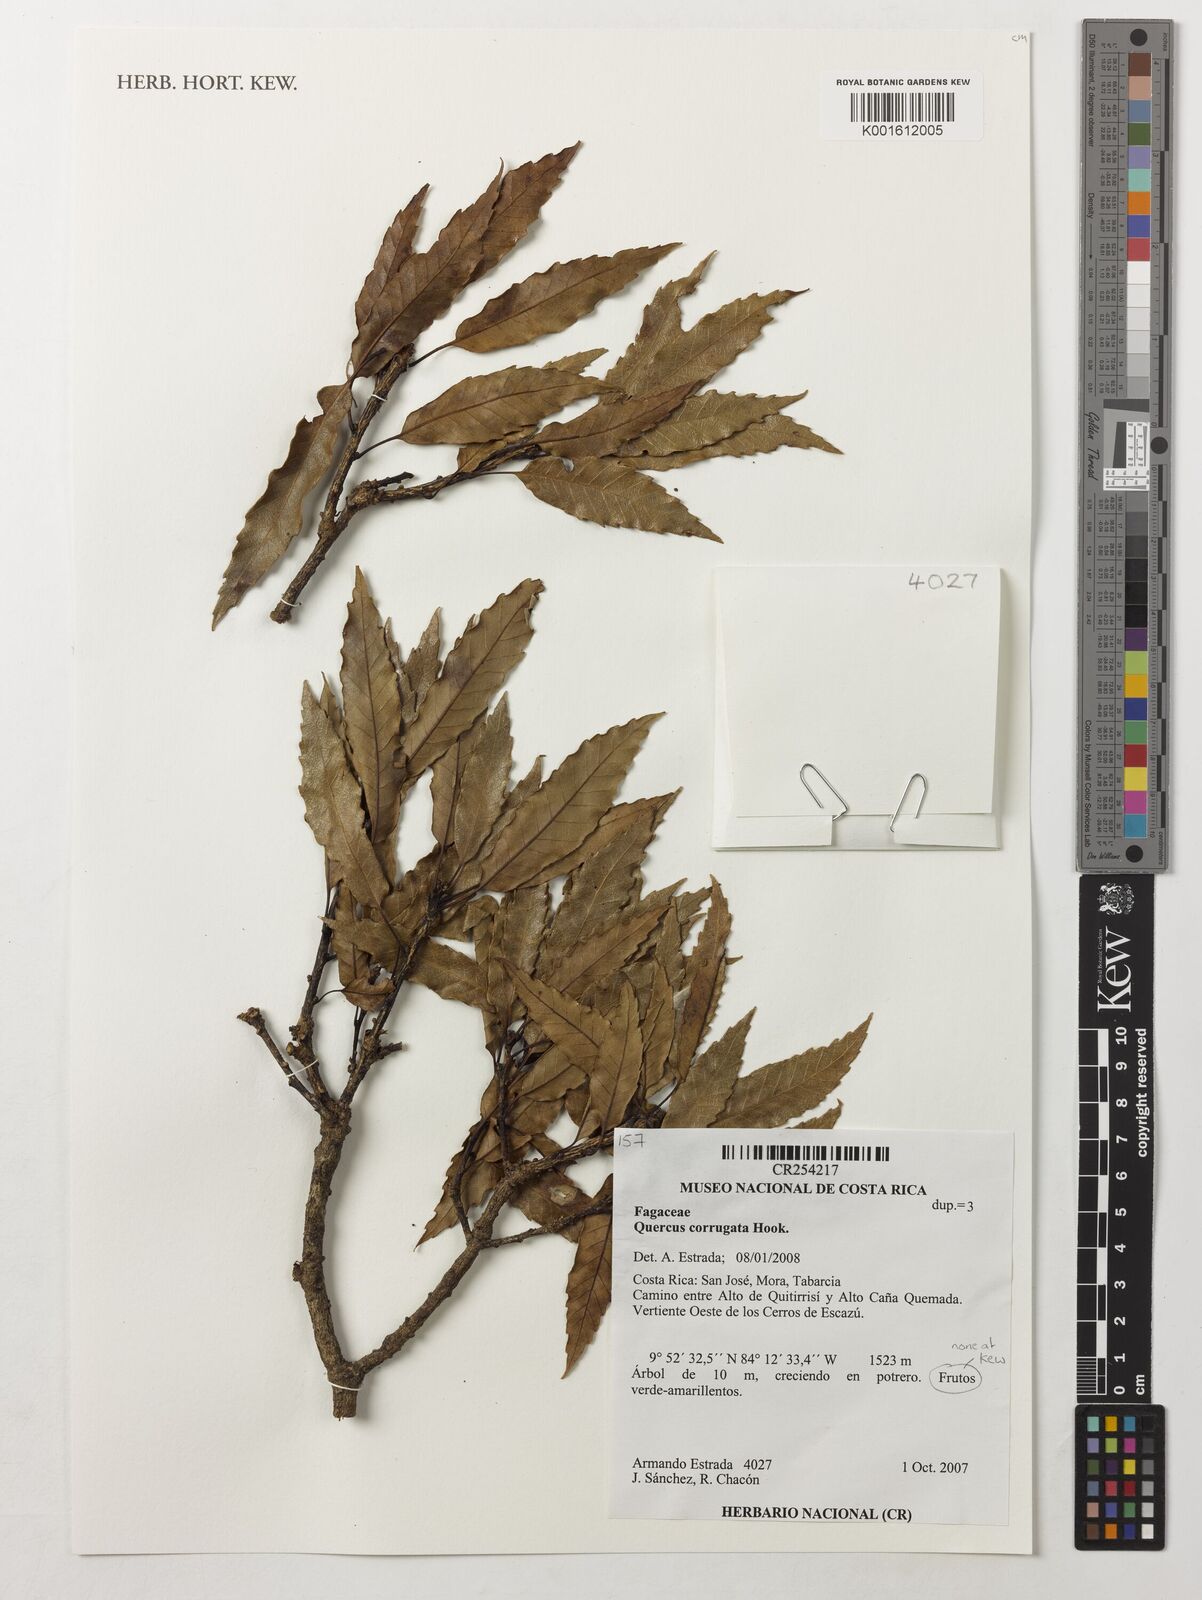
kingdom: Plantae
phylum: Tracheophyta
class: Magnoliopsida
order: Fagales
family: Fagaceae
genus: Quercus
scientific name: Quercus corrugata
